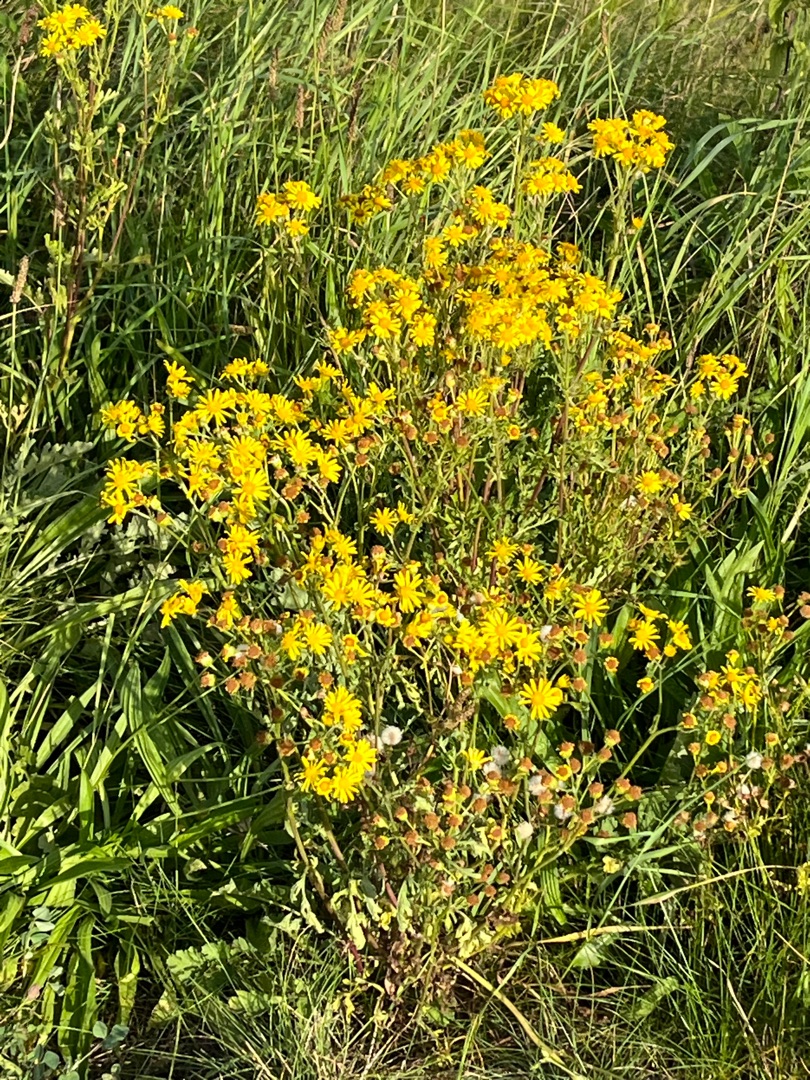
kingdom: Plantae
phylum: Tracheophyta
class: Magnoliopsida
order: Asterales
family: Asteraceae
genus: Jacobaea
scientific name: Jacobaea vulgaris
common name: Eng-brandbæger
